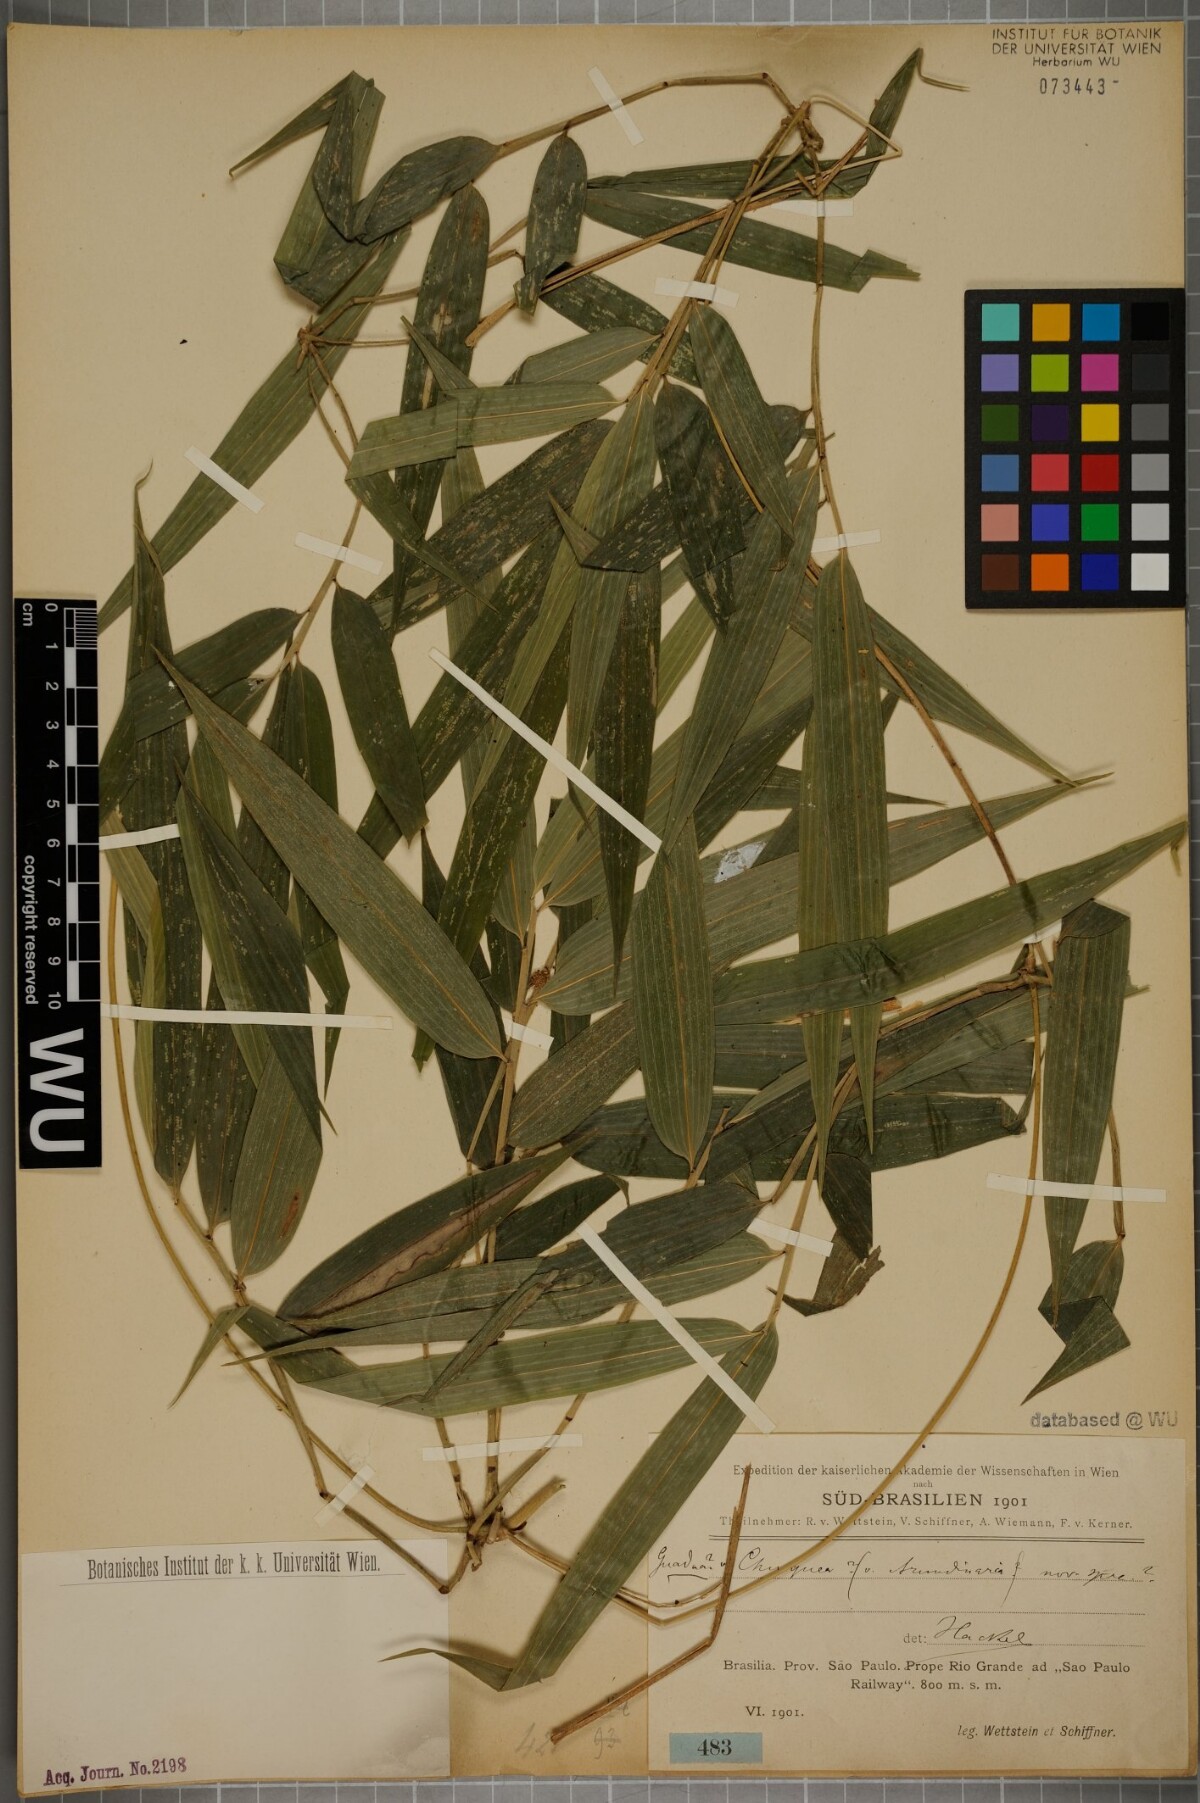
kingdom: Plantae
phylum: Tracheophyta
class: Liliopsida
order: Poales
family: Poaceae
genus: Chusquea
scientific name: Chusquea
